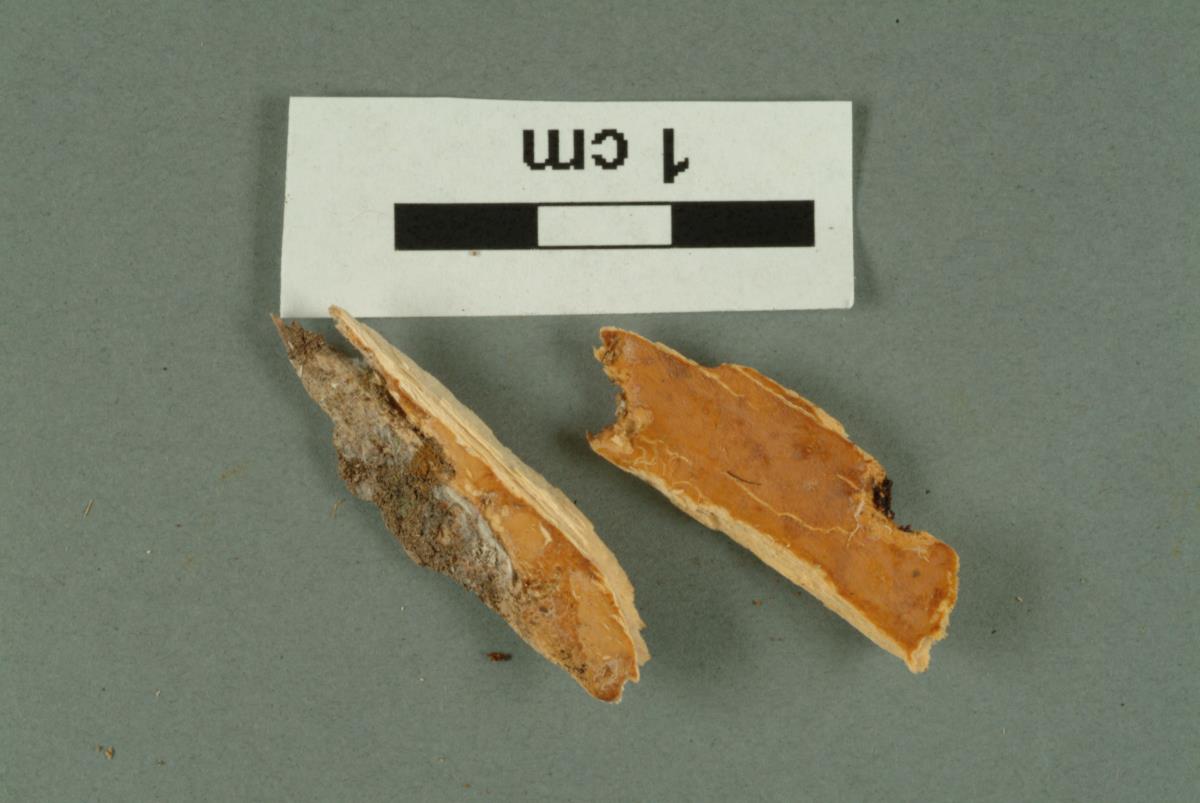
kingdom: Fungi
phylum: Basidiomycota
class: Agaricomycetes
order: Hymenochaetales
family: Hymenochaetaceae
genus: Hymenochaete
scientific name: Hymenochaete
